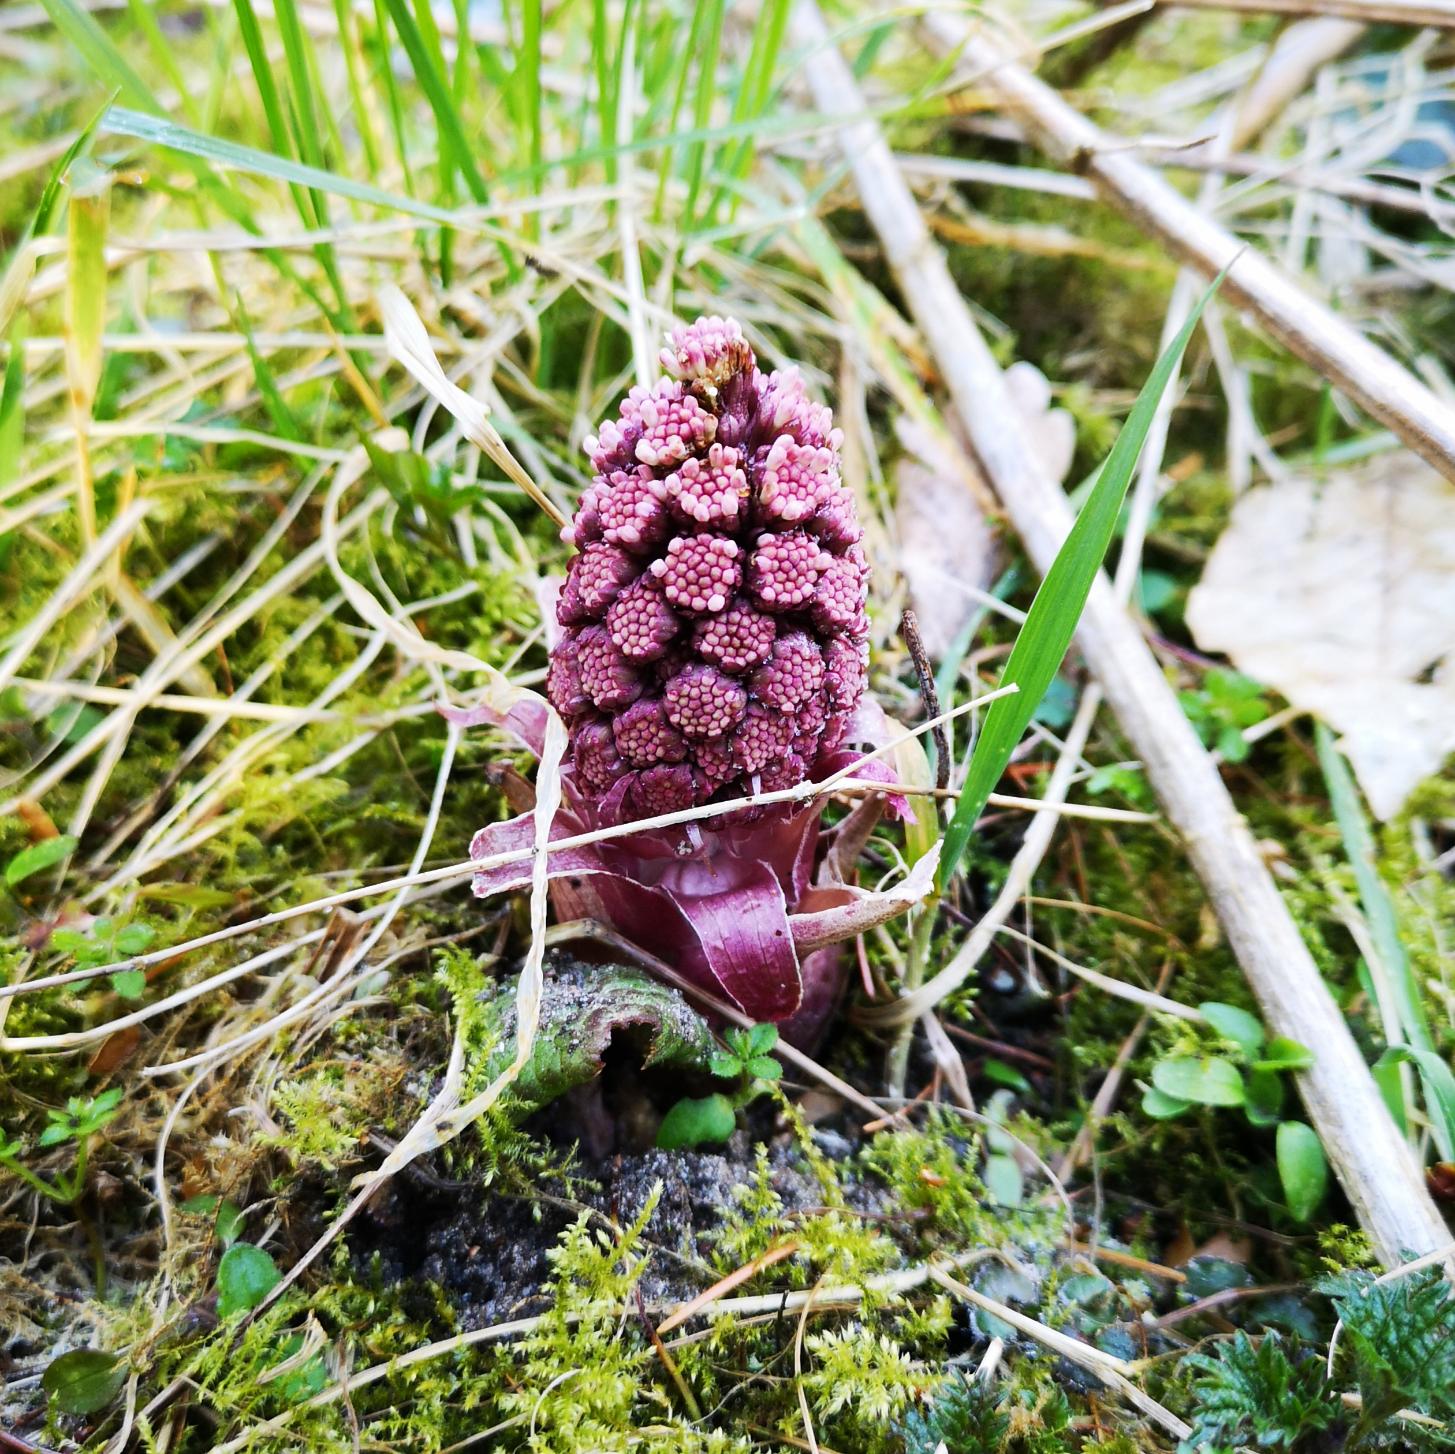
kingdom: Plantae
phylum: Tracheophyta
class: Magnoliopsida
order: Asterales
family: Asteraceae
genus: Petasites
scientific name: Petasites hybridus
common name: Rød hestehov
